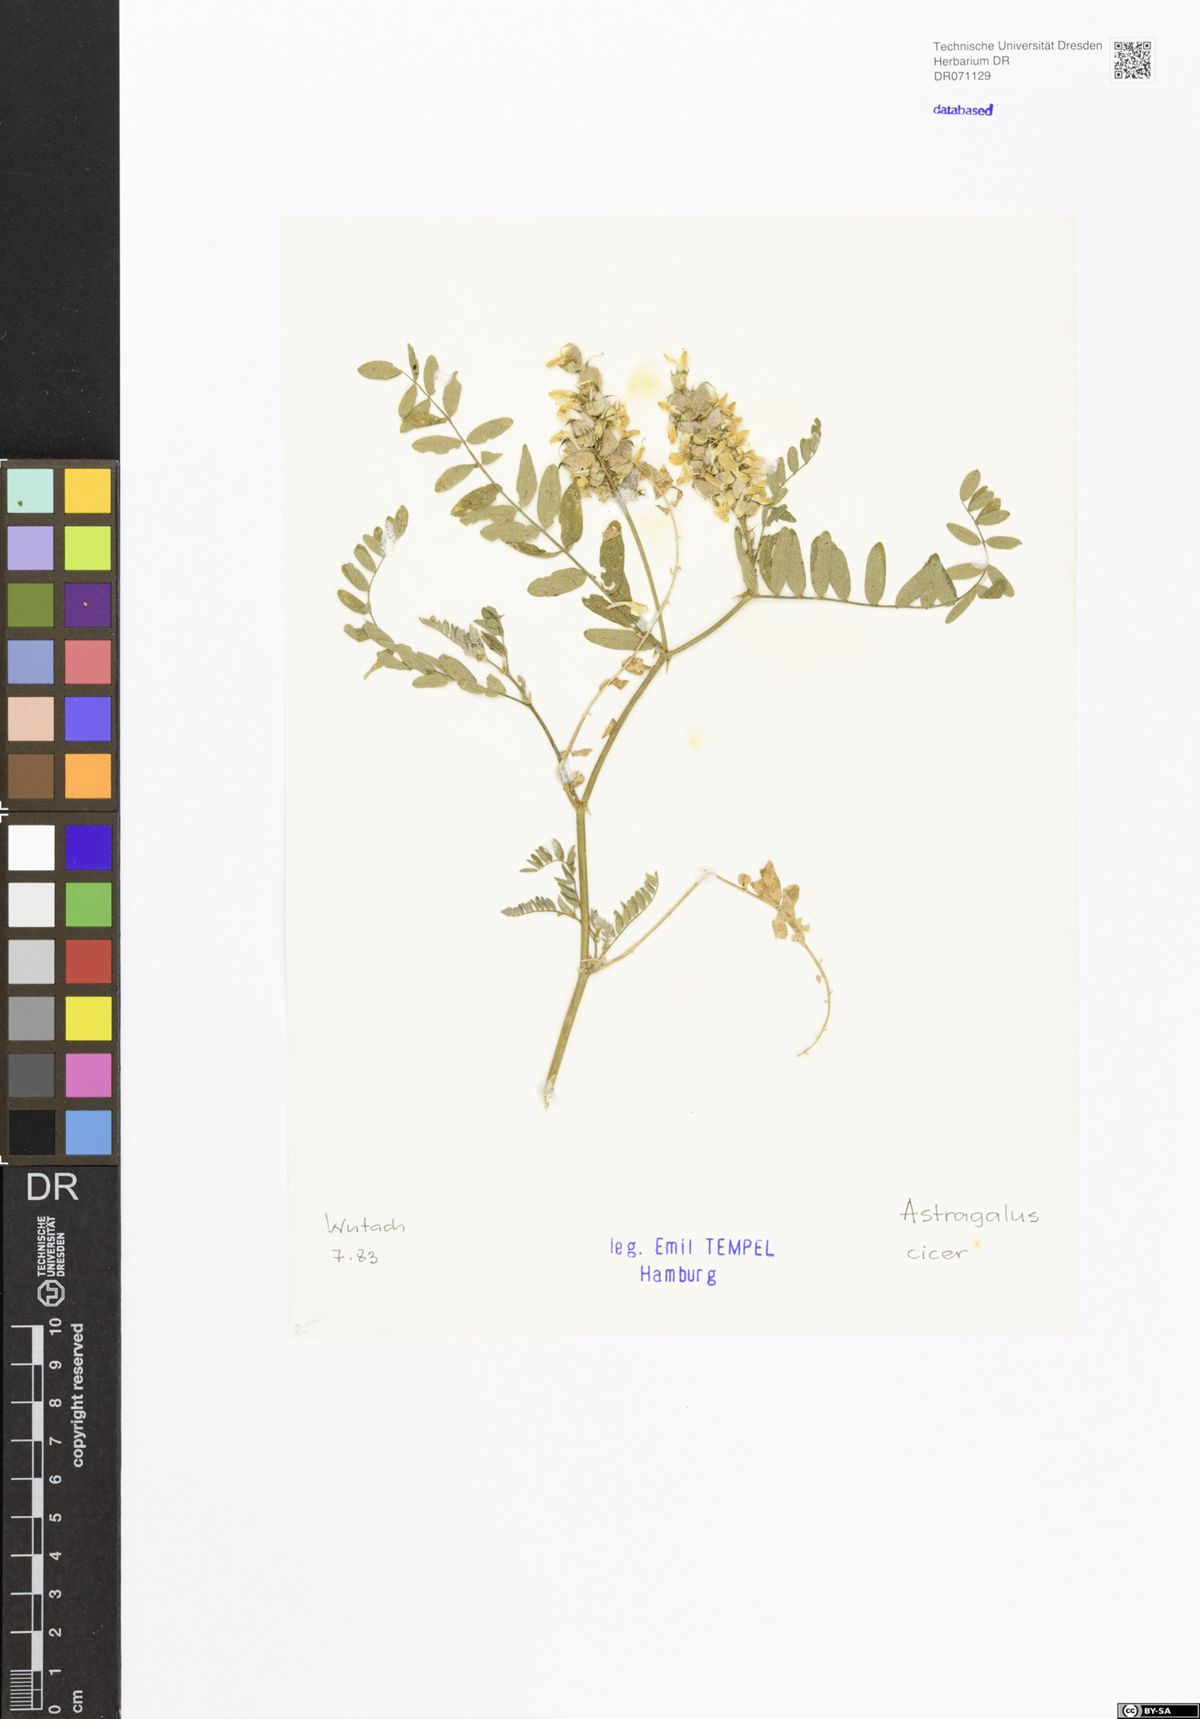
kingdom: Plantae
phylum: Tracheophyta
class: Magnoliopsida
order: Fabales
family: Fabaceae
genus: Astragalus
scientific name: Astragalus cicer
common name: Chick-pea milk-vetch
